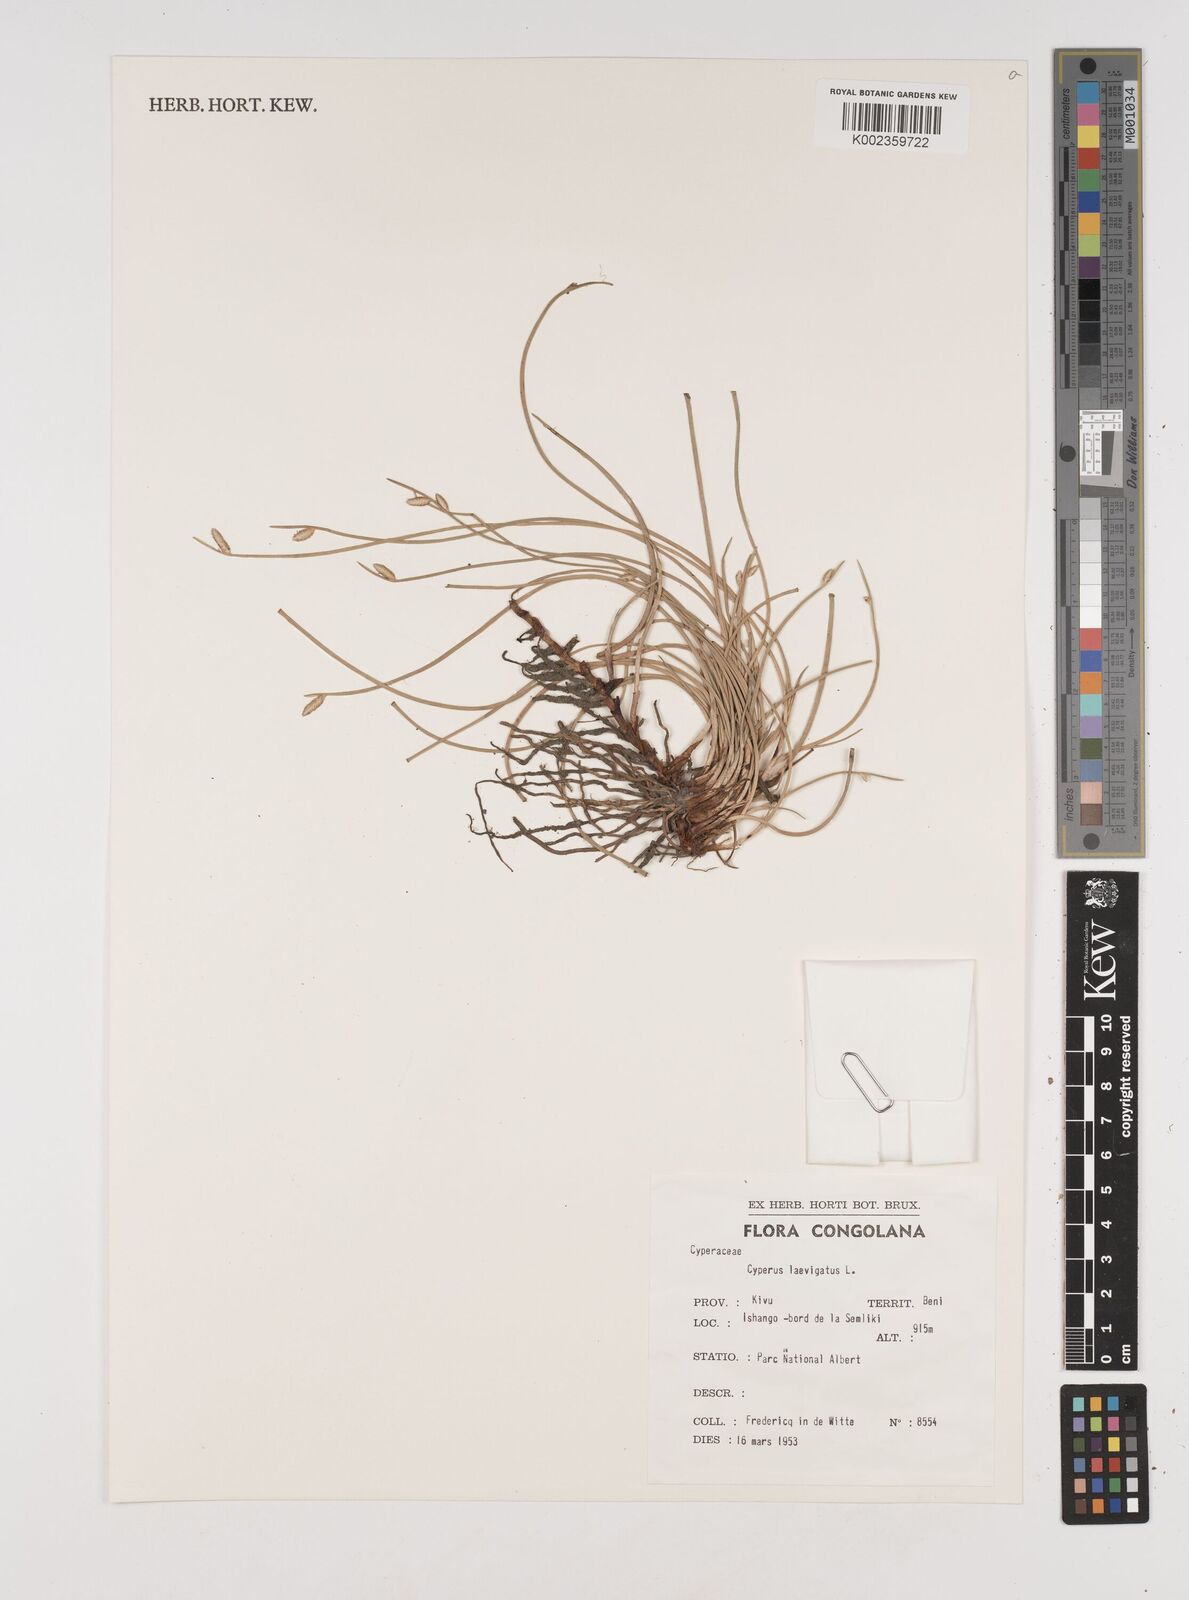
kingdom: Plantae
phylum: Tracheophyta
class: Liliopsida
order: Poales
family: Cyperaceae
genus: Cyperus
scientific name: Cyperus laevigatus
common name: Smooth flat sedge
